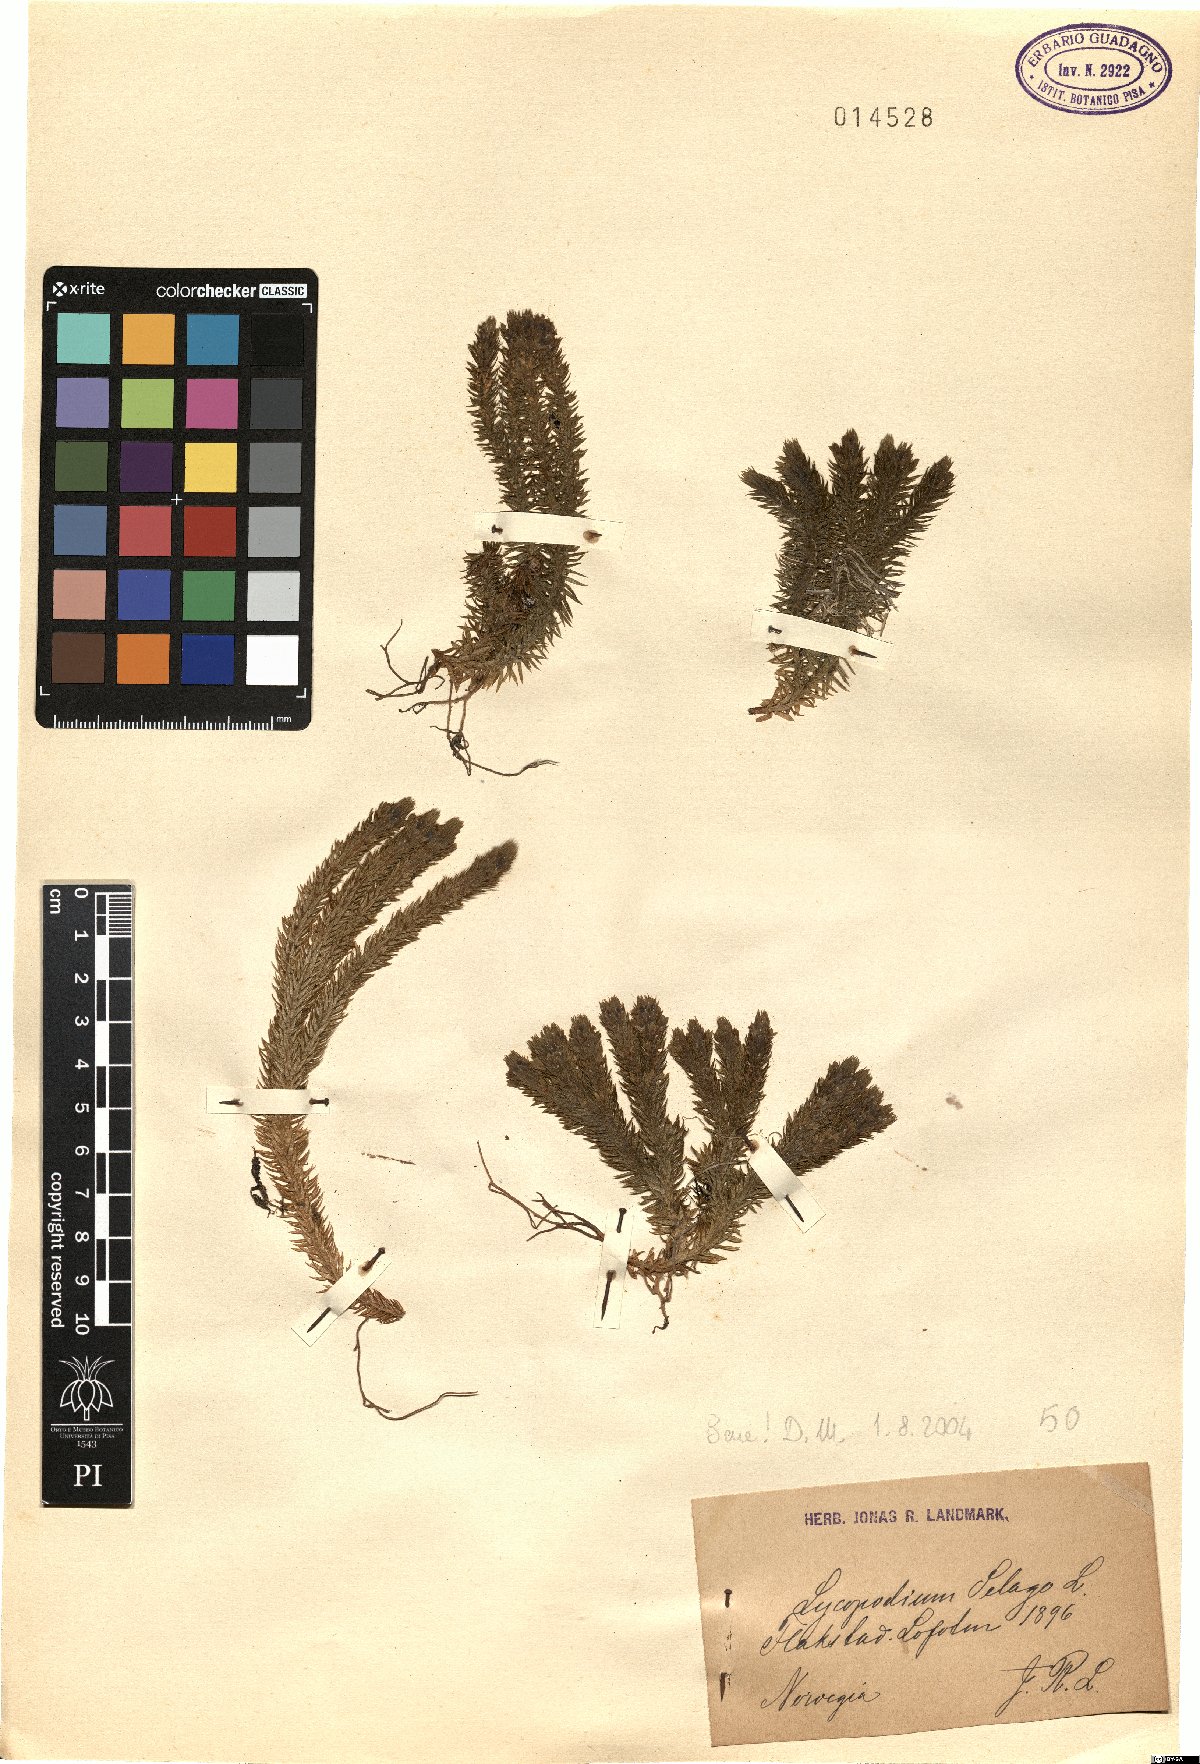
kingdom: Plantae
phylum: Tracheophyta
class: Lycopodiopsida
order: Lycopodiales
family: Lycopodiaceae
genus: Huperzia
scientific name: Huperzia selago
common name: Northern firmoss
